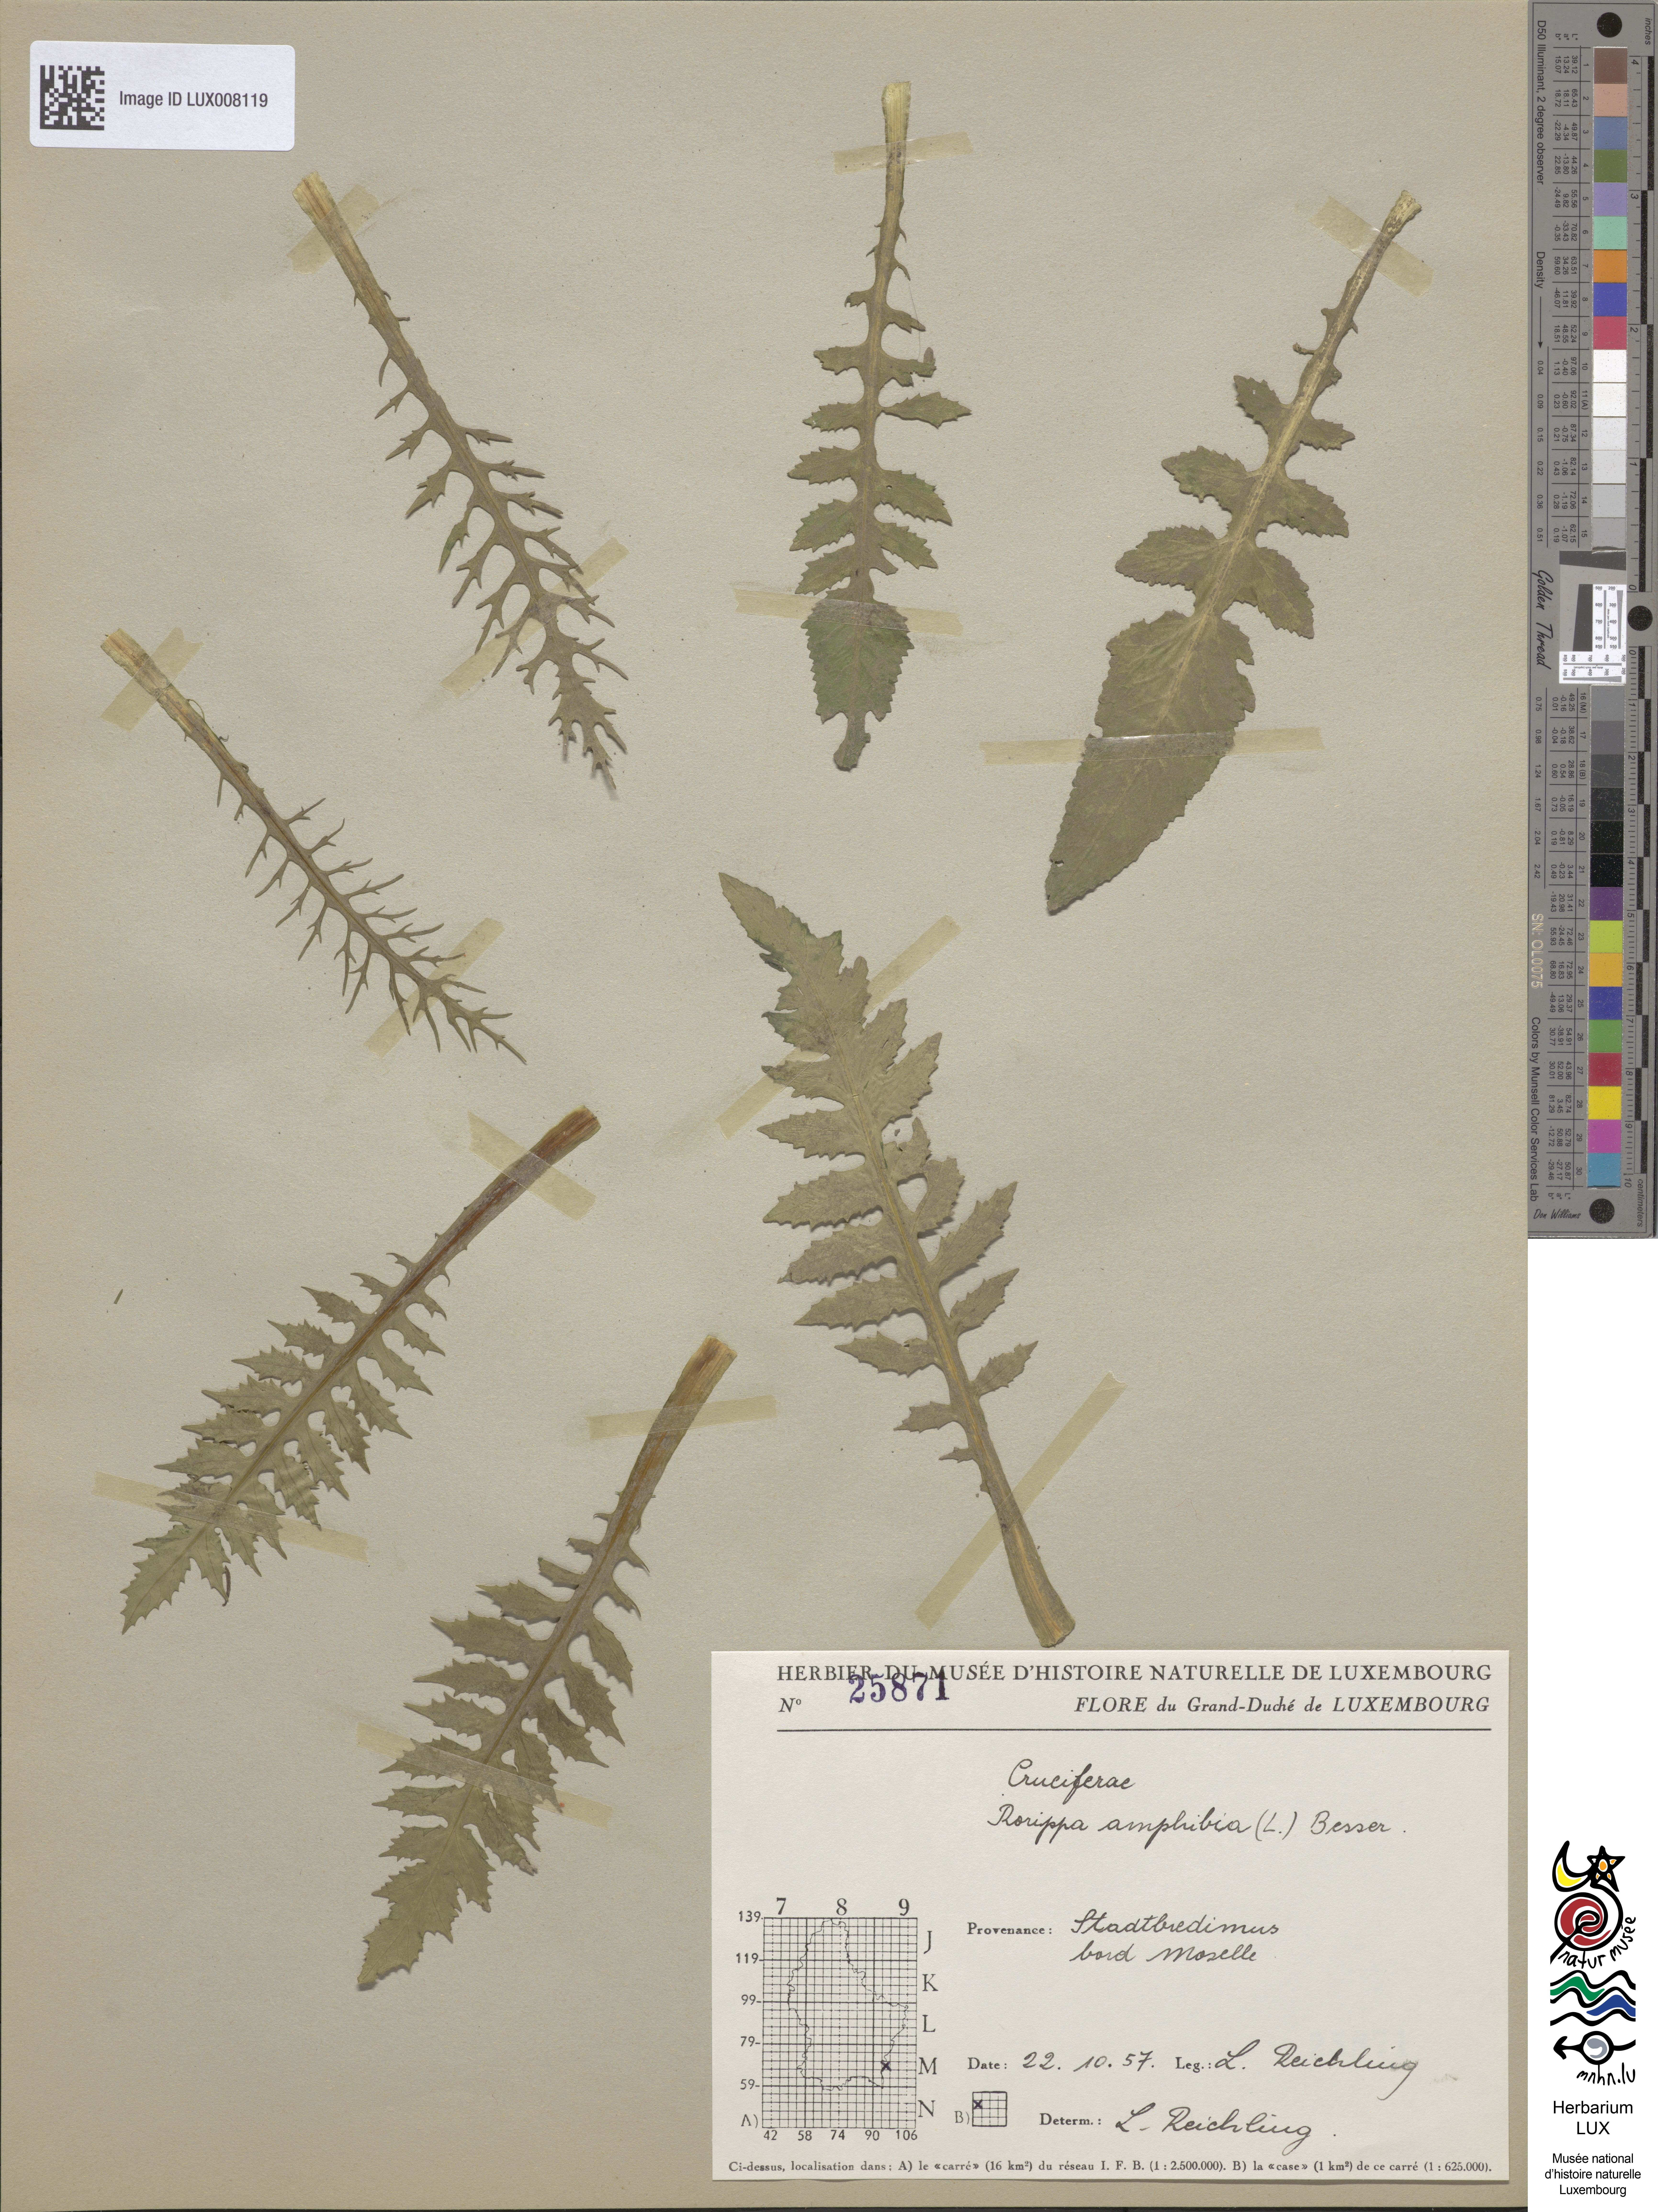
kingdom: Plantae
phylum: Tracheophyta
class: Magnoliopsida
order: Brassicales
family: Brassicaceae
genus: Rorippa
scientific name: Rorippa amphibia
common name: Great yellow-cress
